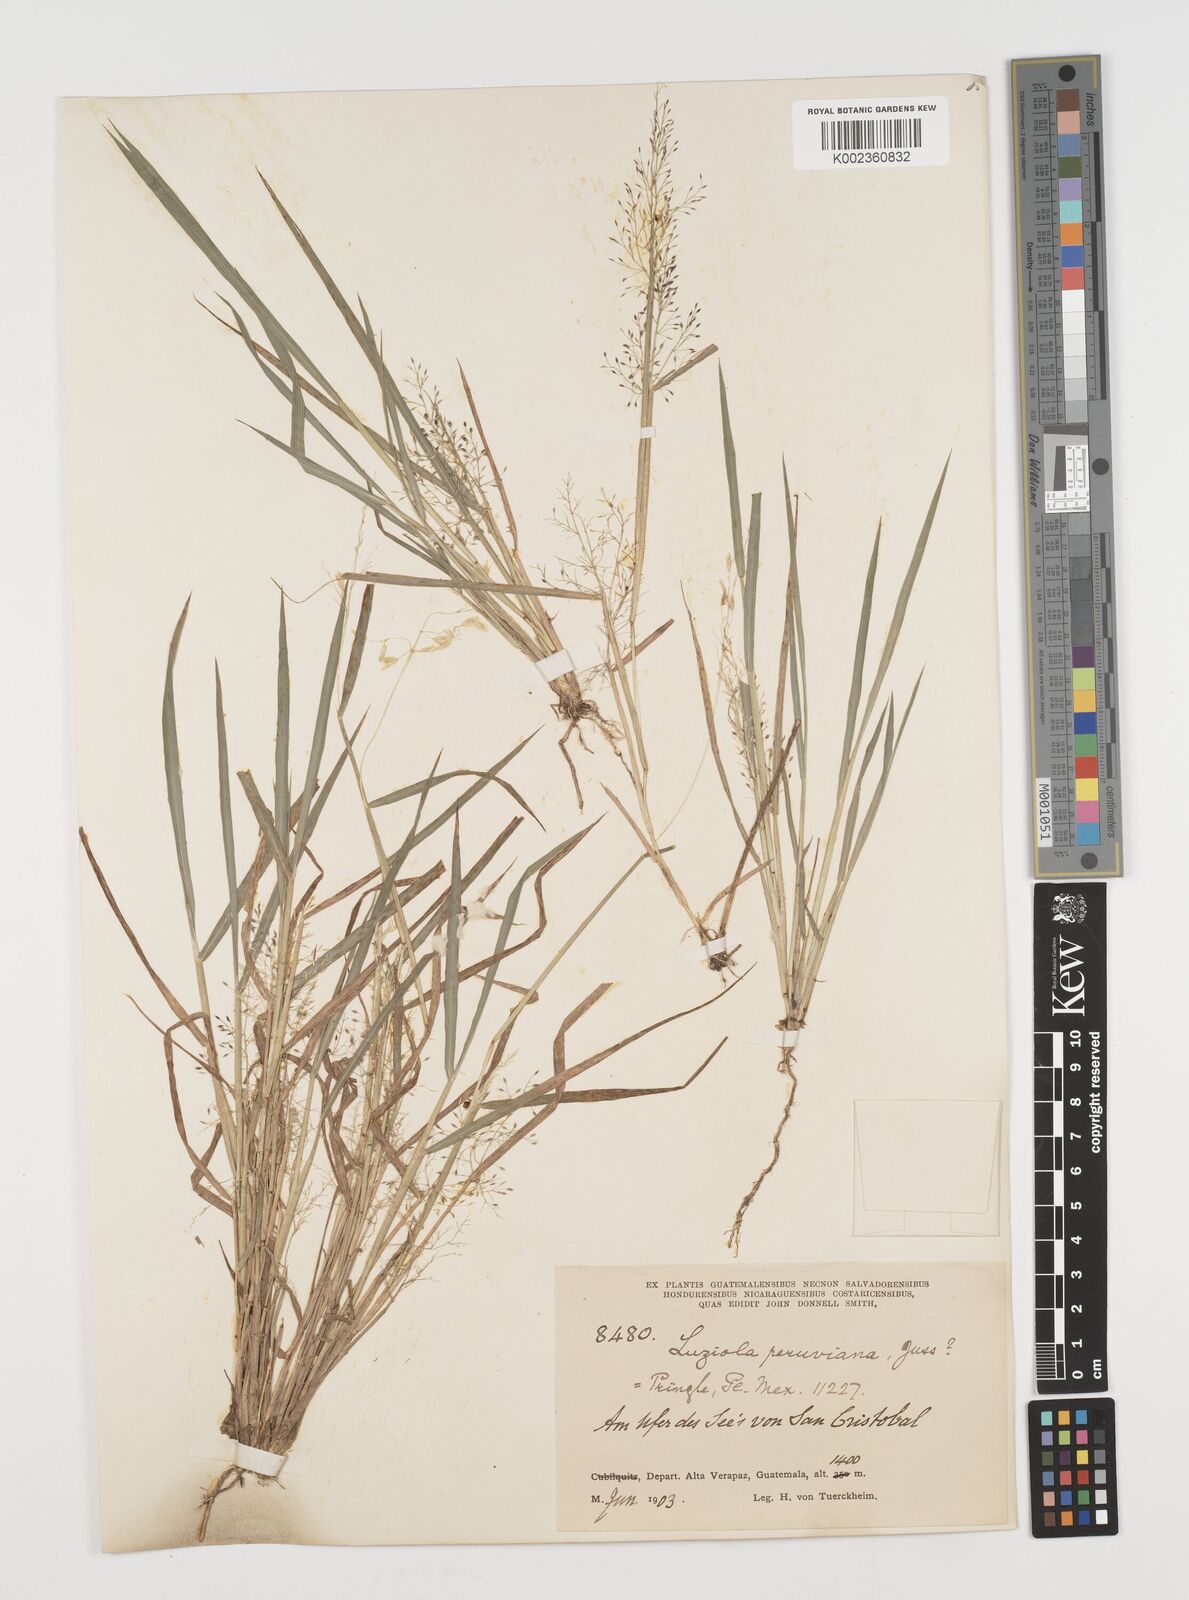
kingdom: Plantae
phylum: Tracheophyta
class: Liliopsida
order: Poales
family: Poaceae
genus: Luziola
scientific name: Luziola peruviana
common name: Peruvian watergrass
